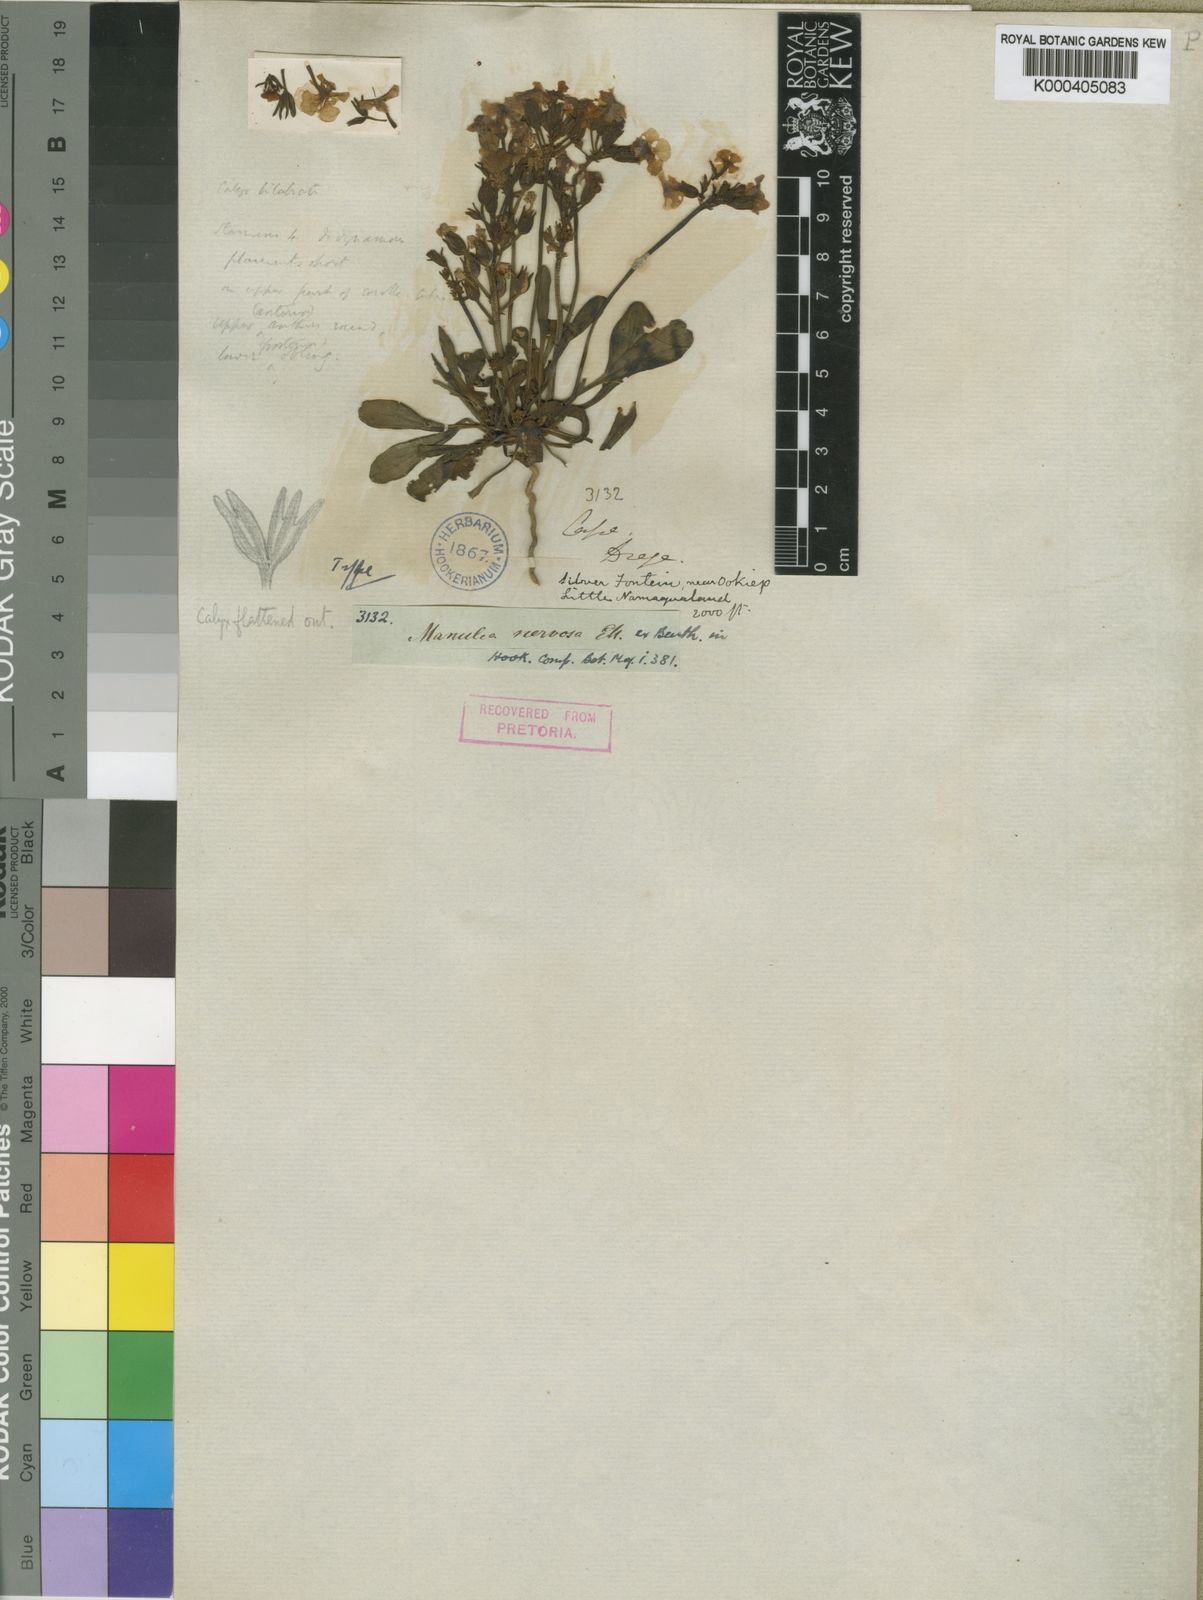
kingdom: Plantae
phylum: Tracheophyta
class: Magnoliopsida
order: Lamiales
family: Scrophulariaceae
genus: Manulea
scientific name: Manulea nervosa
